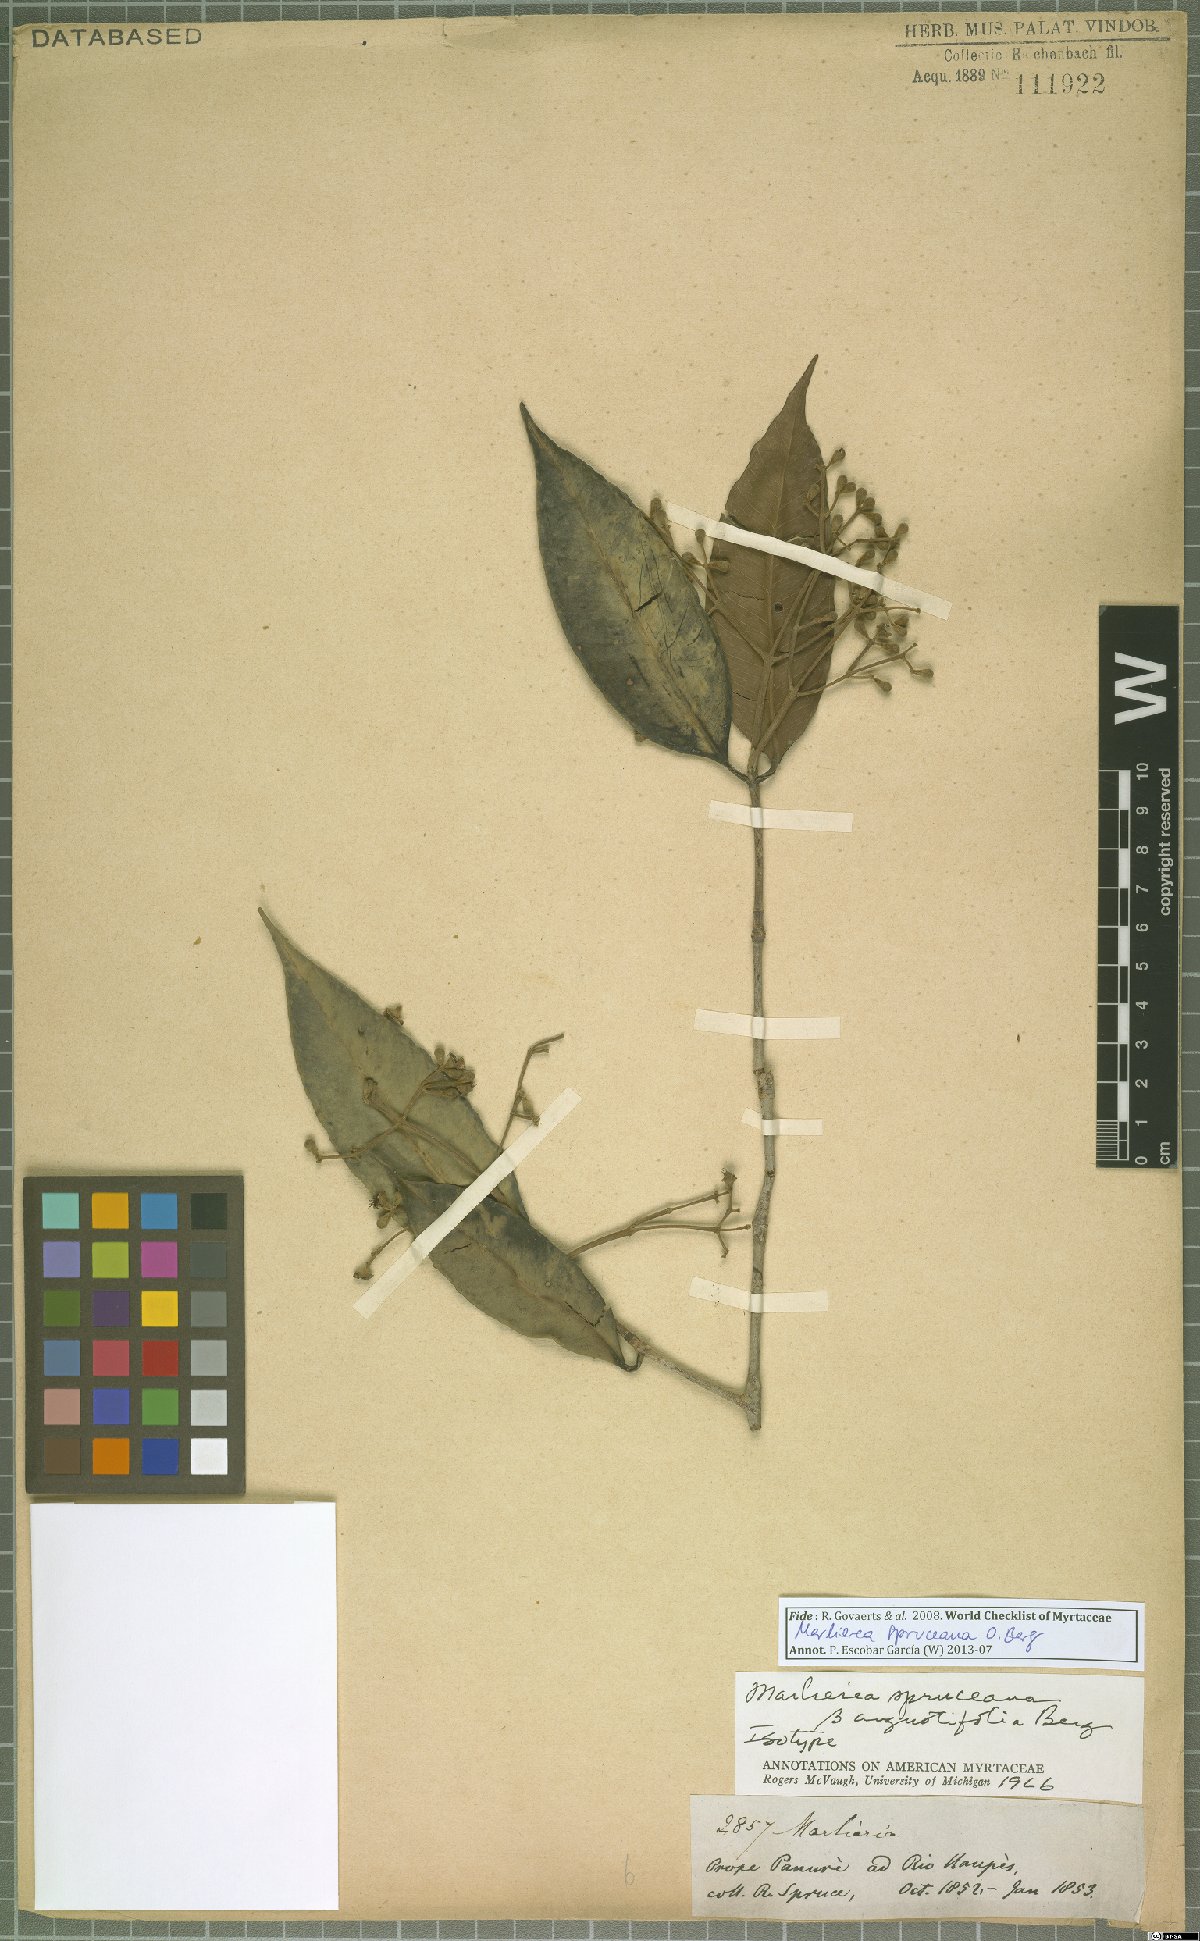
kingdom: Plantae
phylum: Tracheophyta
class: Magnoliopsida
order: Myrtales
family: Myrtaceae
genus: Myrcia
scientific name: Myrcia argentigemma
